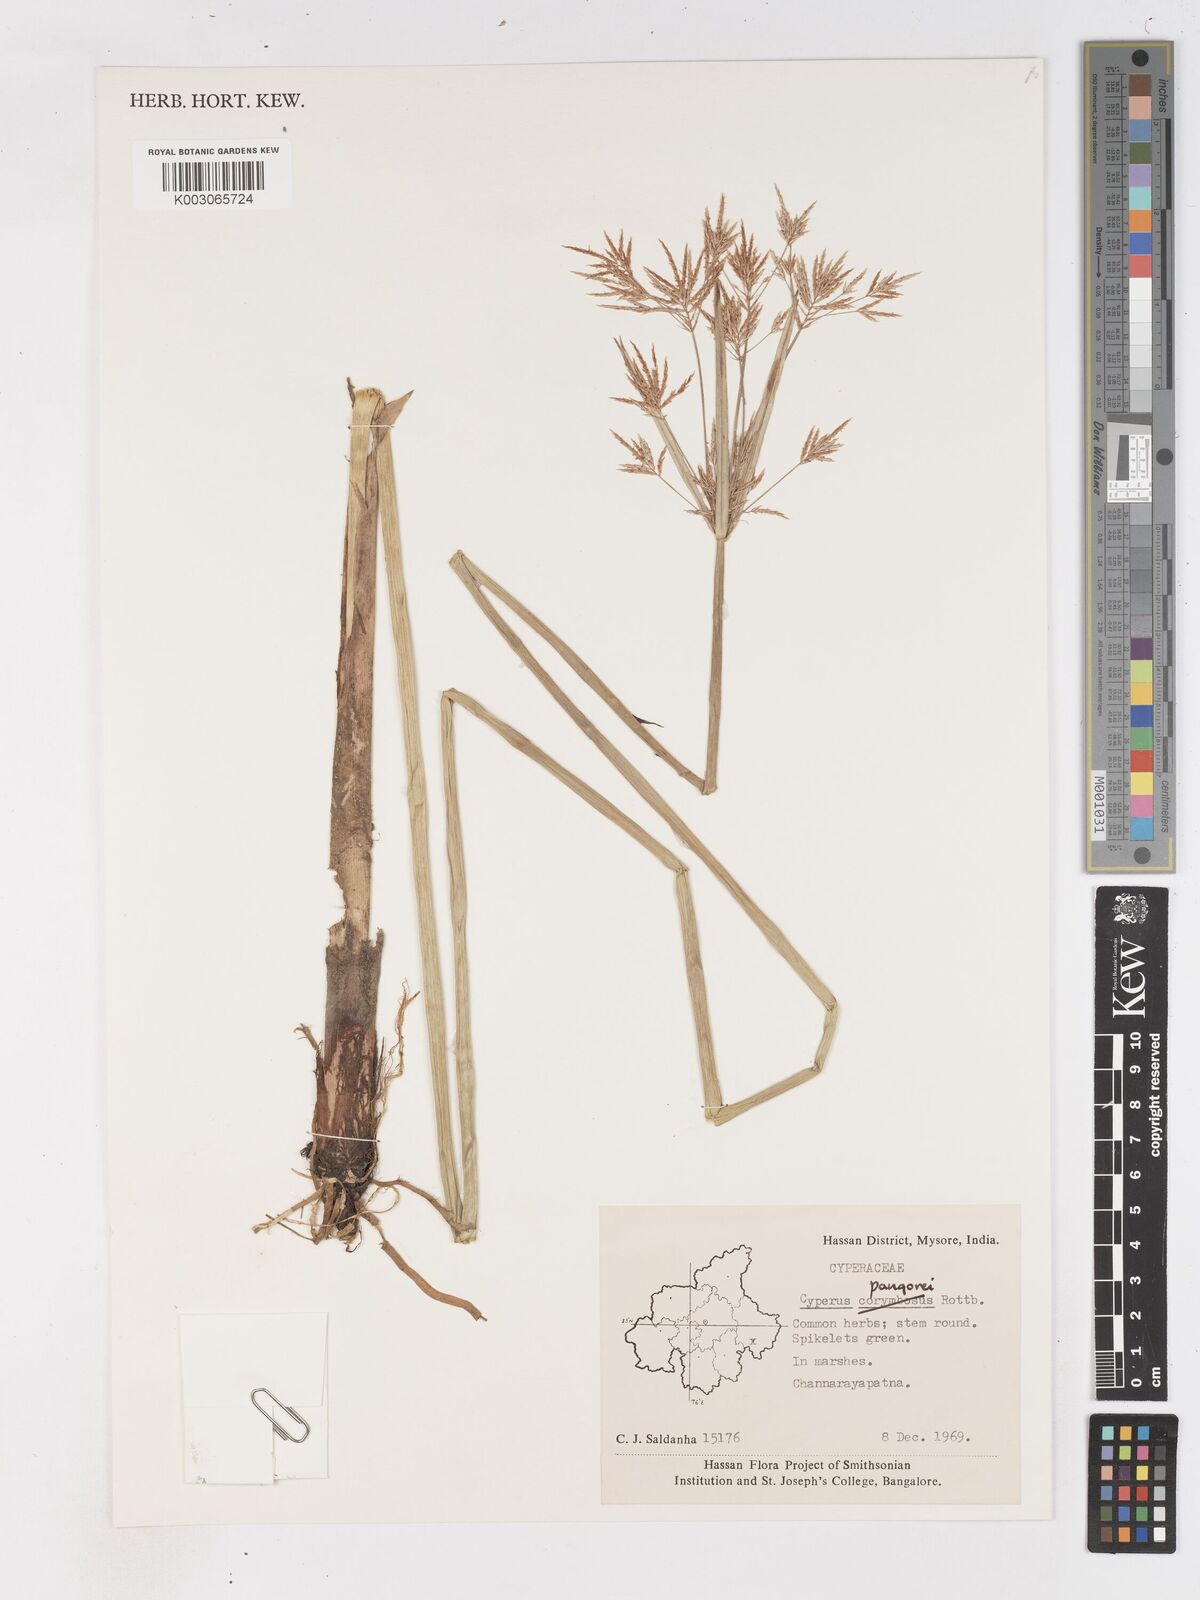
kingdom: Plantae
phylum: Tracheophyta
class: Liliopsida
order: Poales
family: Cyperaceae
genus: Cyperus
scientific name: Cyperus pangorei
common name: Mat sedge
